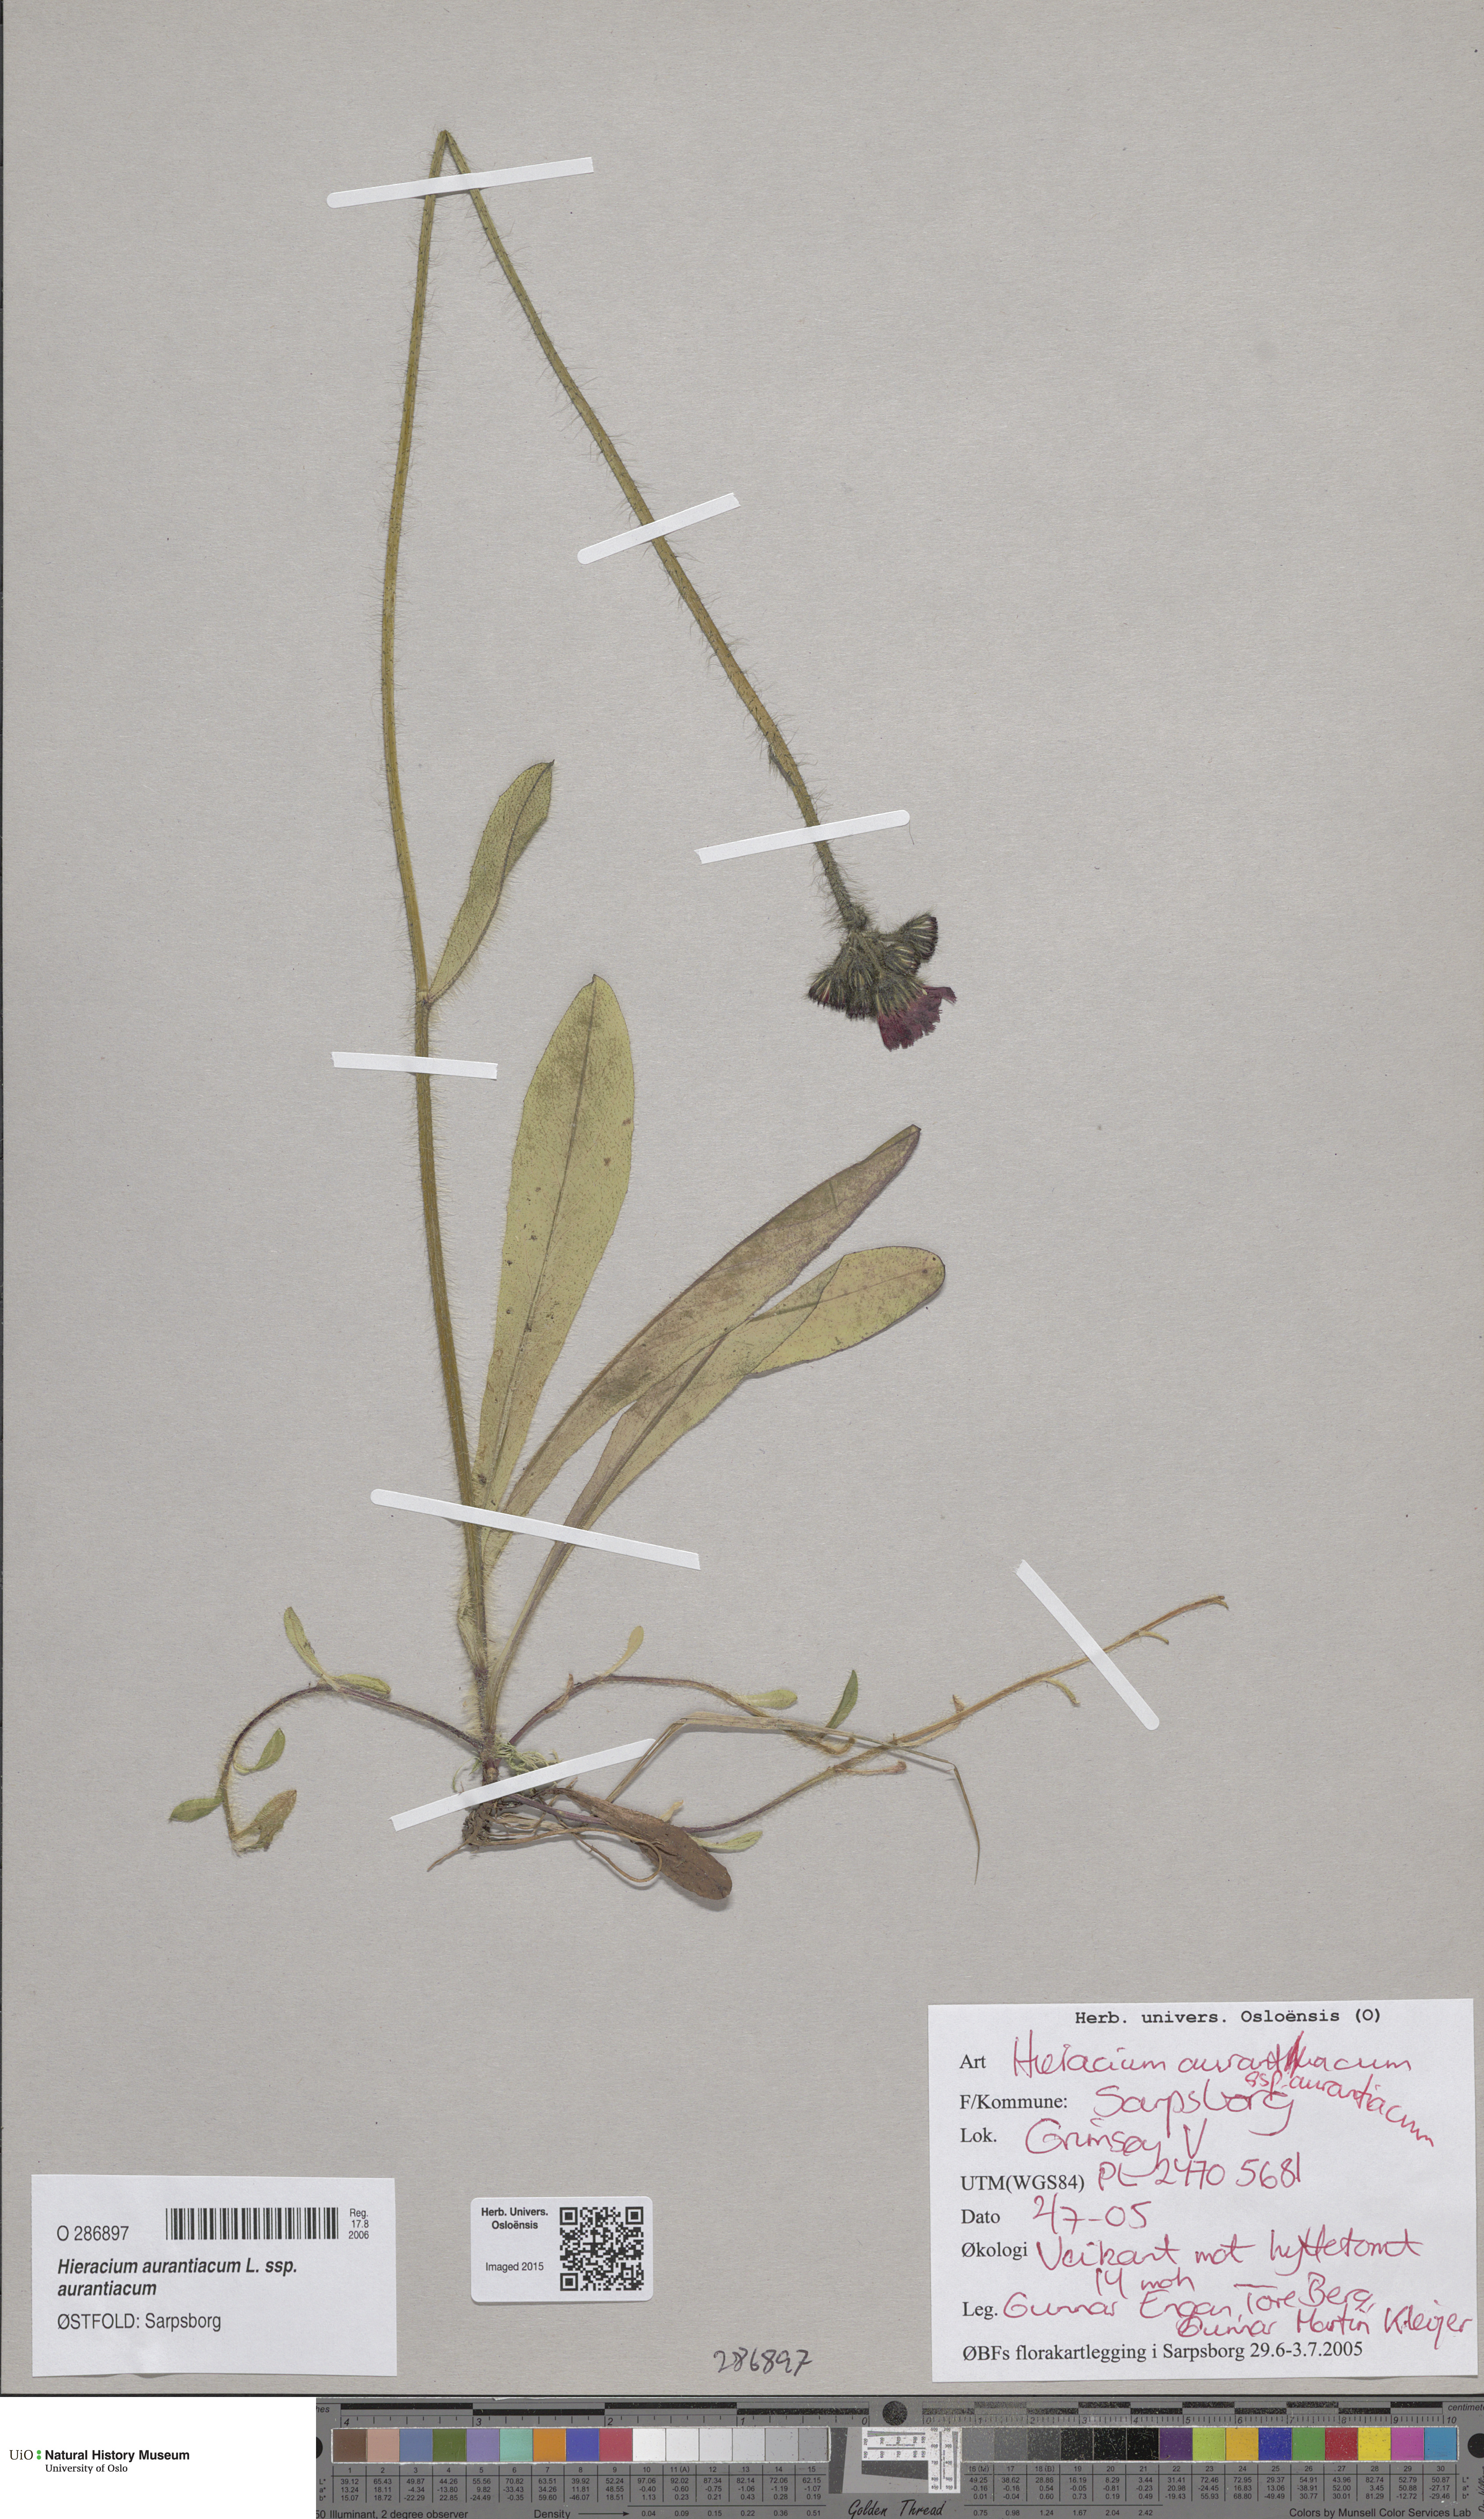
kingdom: Plantae
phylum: Tracheophyta
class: Magnoliopsida
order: Asterales
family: Asteraceae
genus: Pilosella
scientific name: Pilosella aurantiaca
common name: Fox-and-cubs
